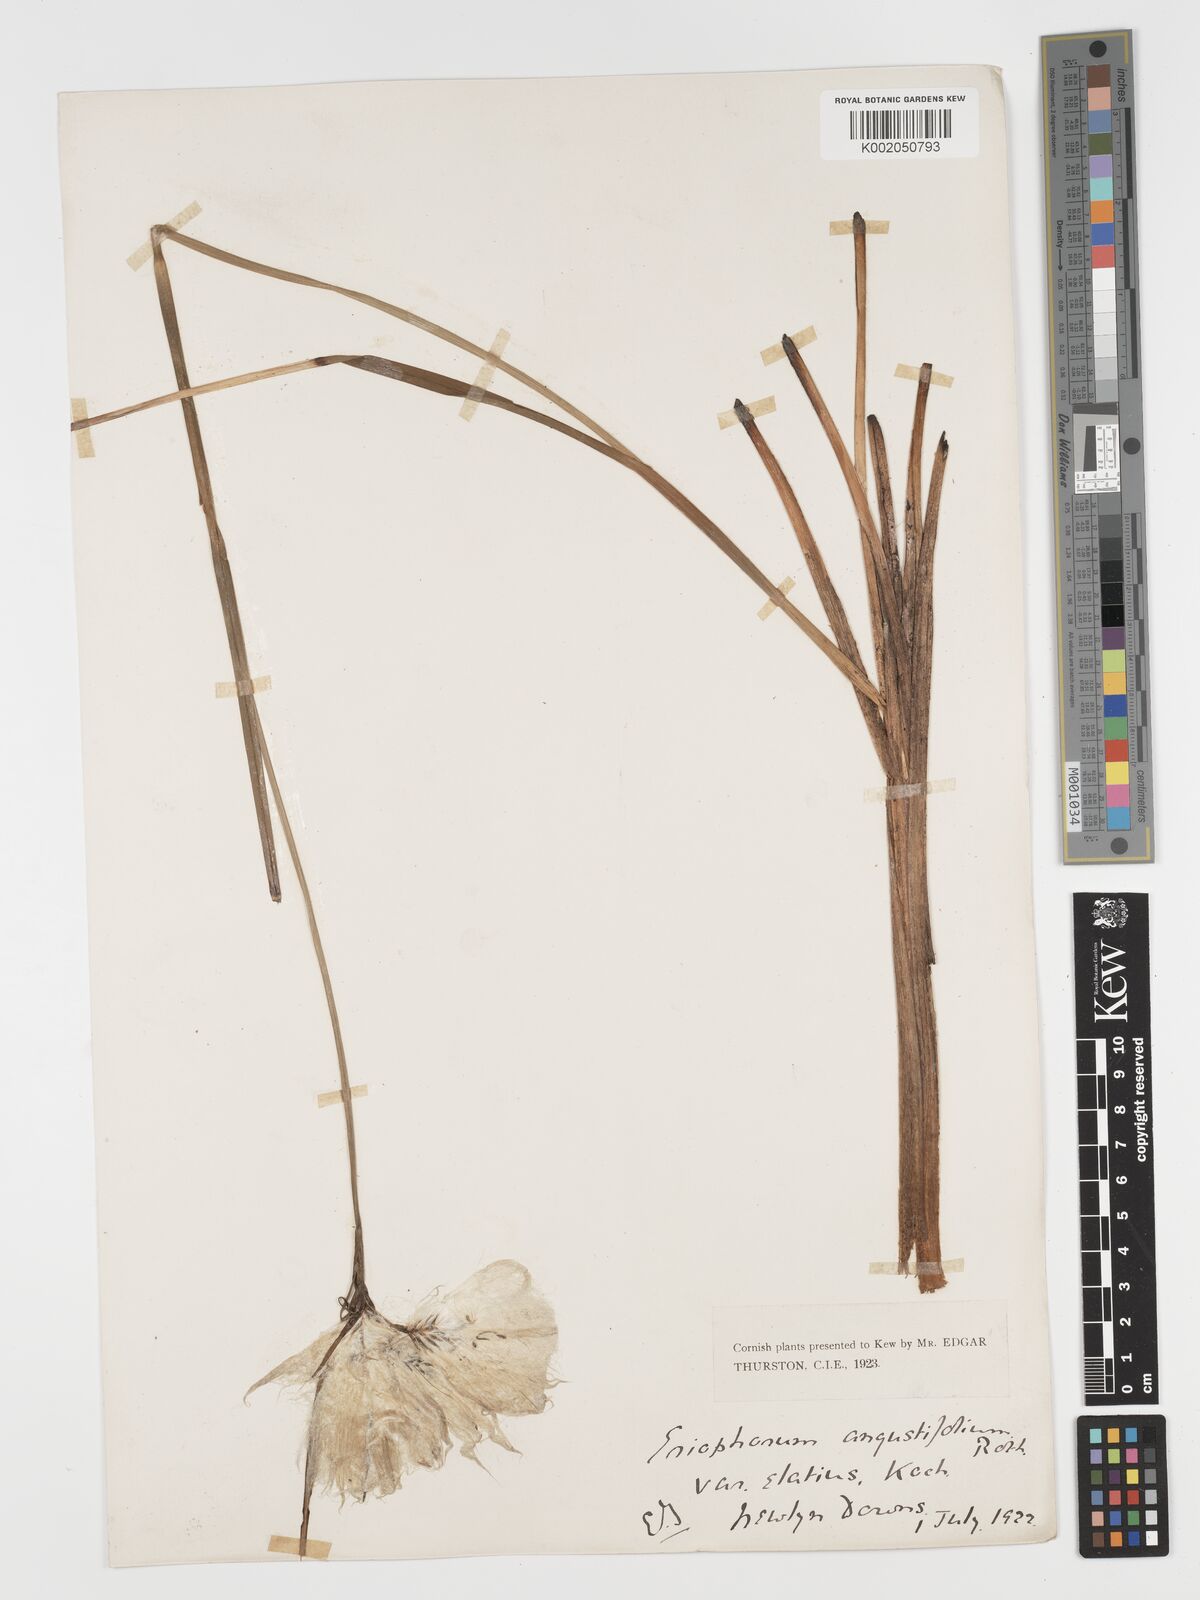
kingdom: Plantae
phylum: Tracheophyta
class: Liliopsida
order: Poales
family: Cyperaceae
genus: Eriophorum
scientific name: Eriophorum angustifolium
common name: Common cottongrass
